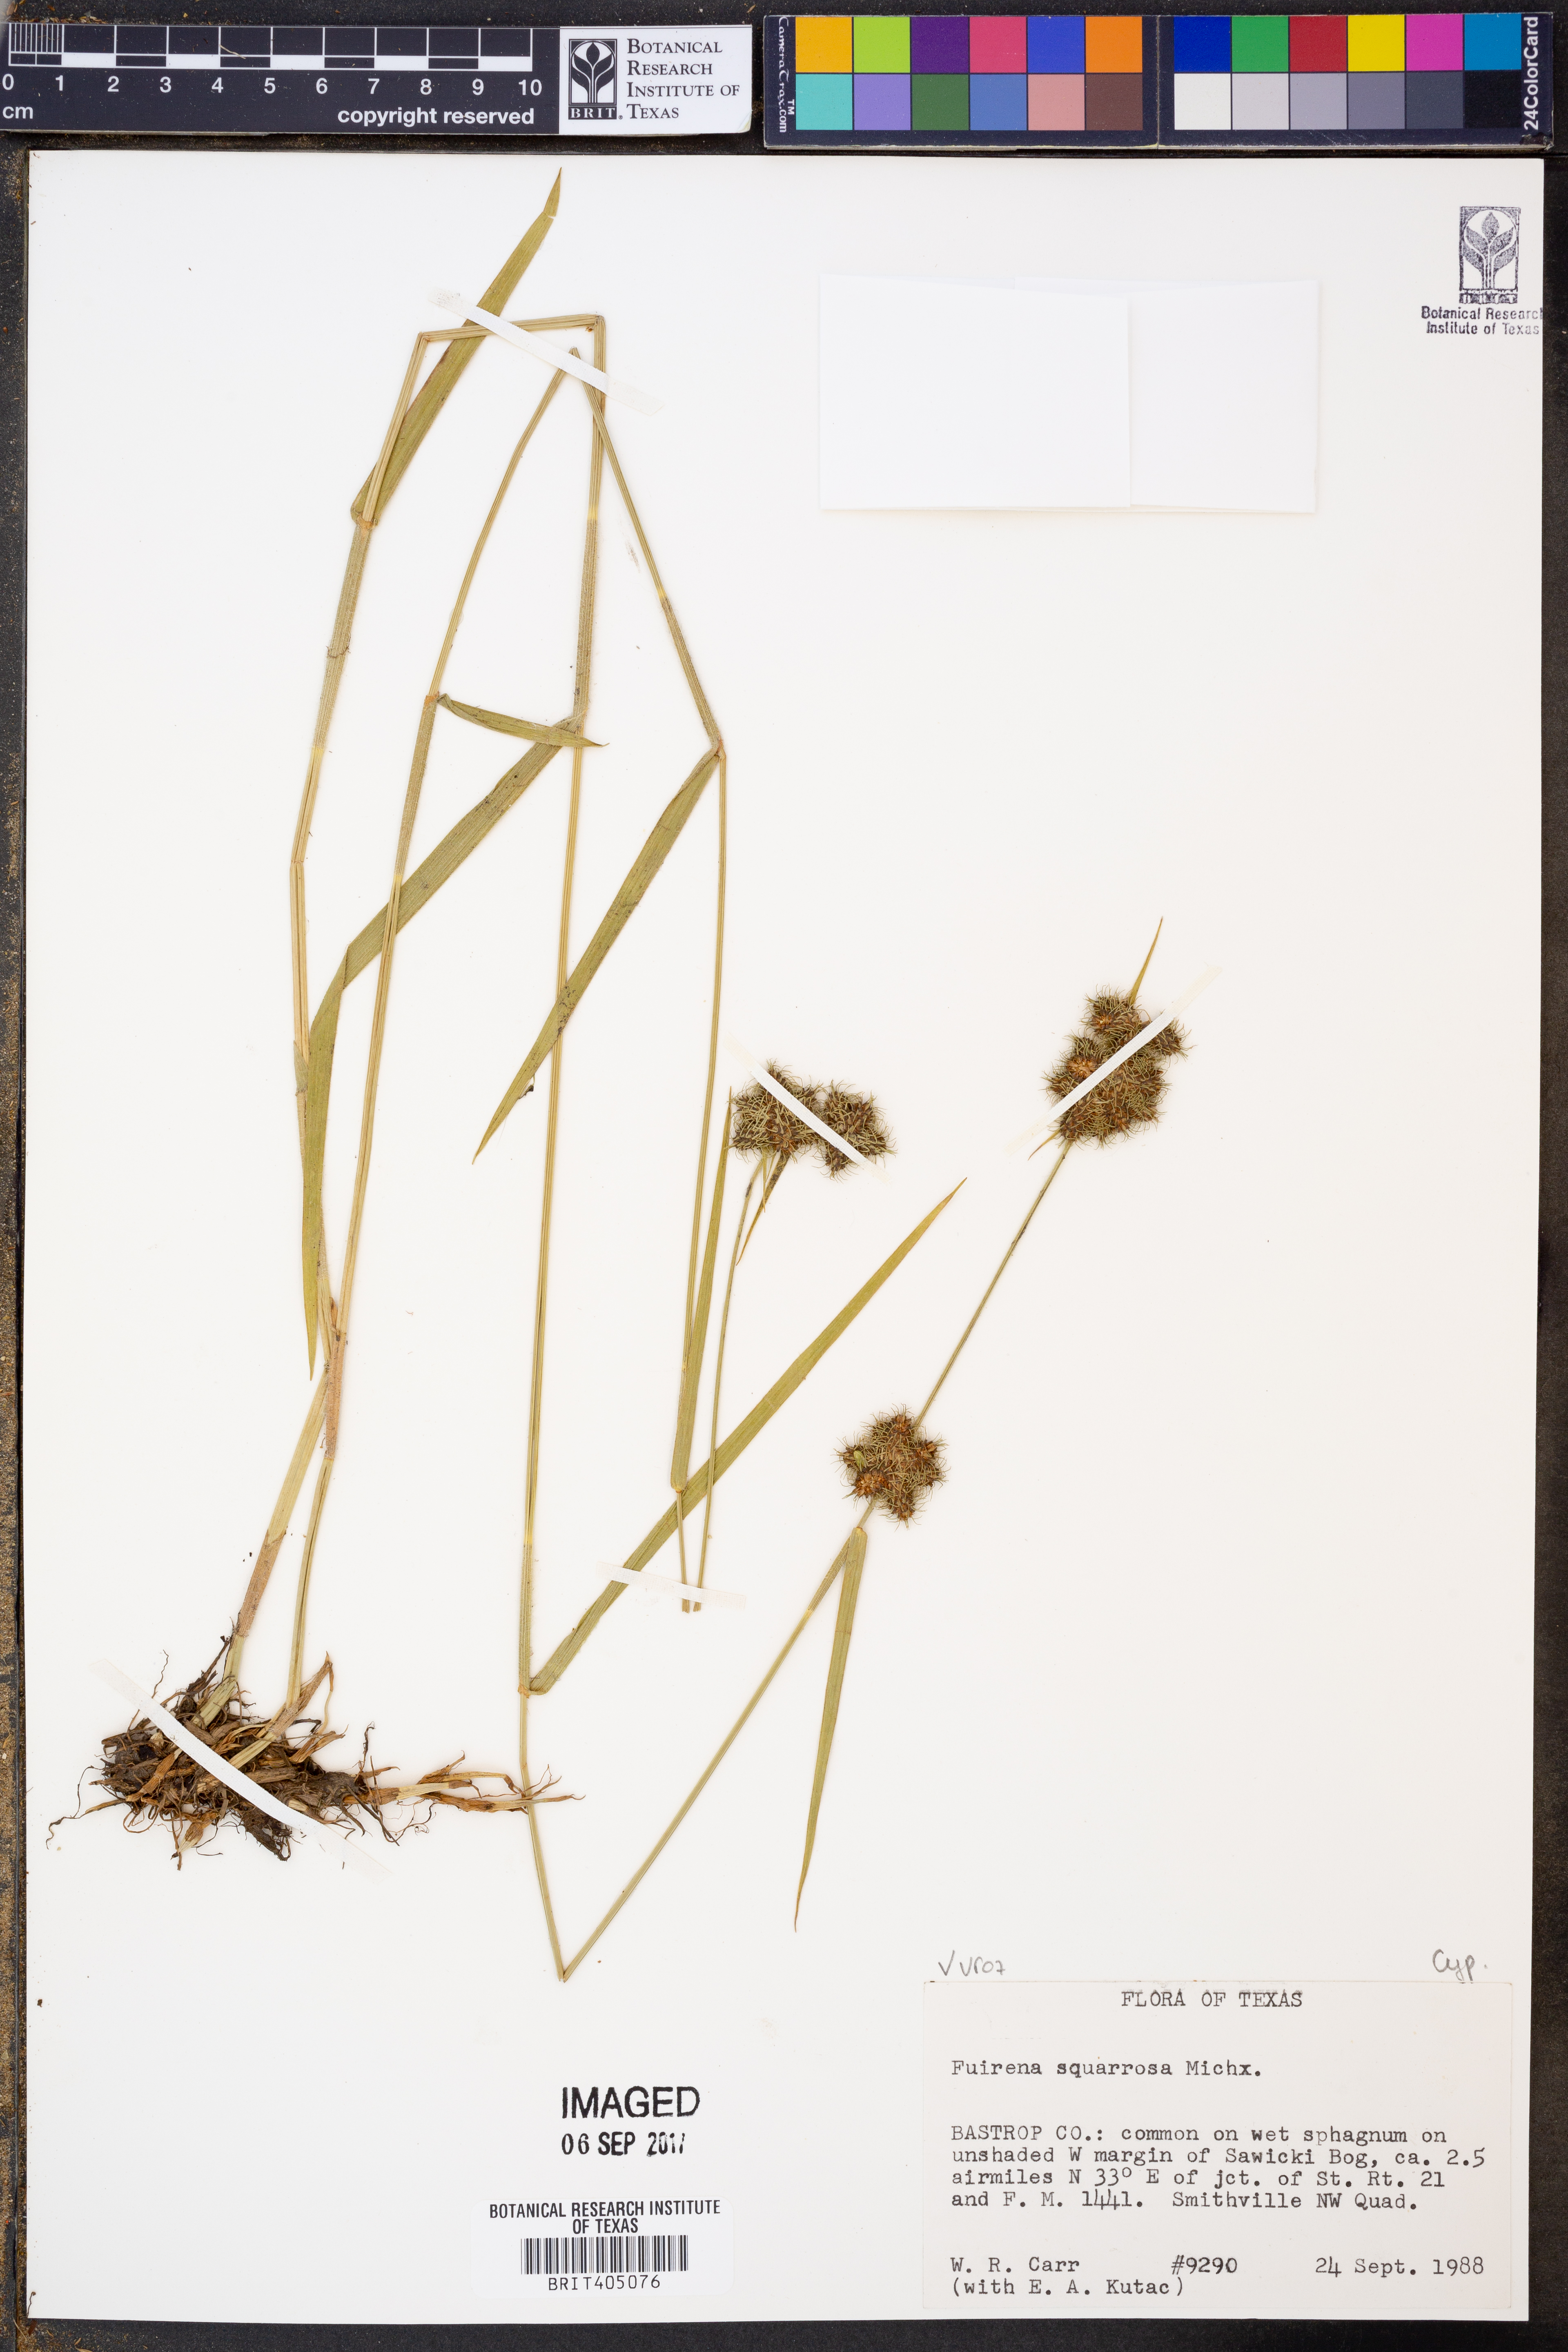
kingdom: Plantae
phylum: Tracheophyta
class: Liliopsida
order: Poales
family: Cyperaceae
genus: Fuirena
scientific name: Fuirena squarrosa
